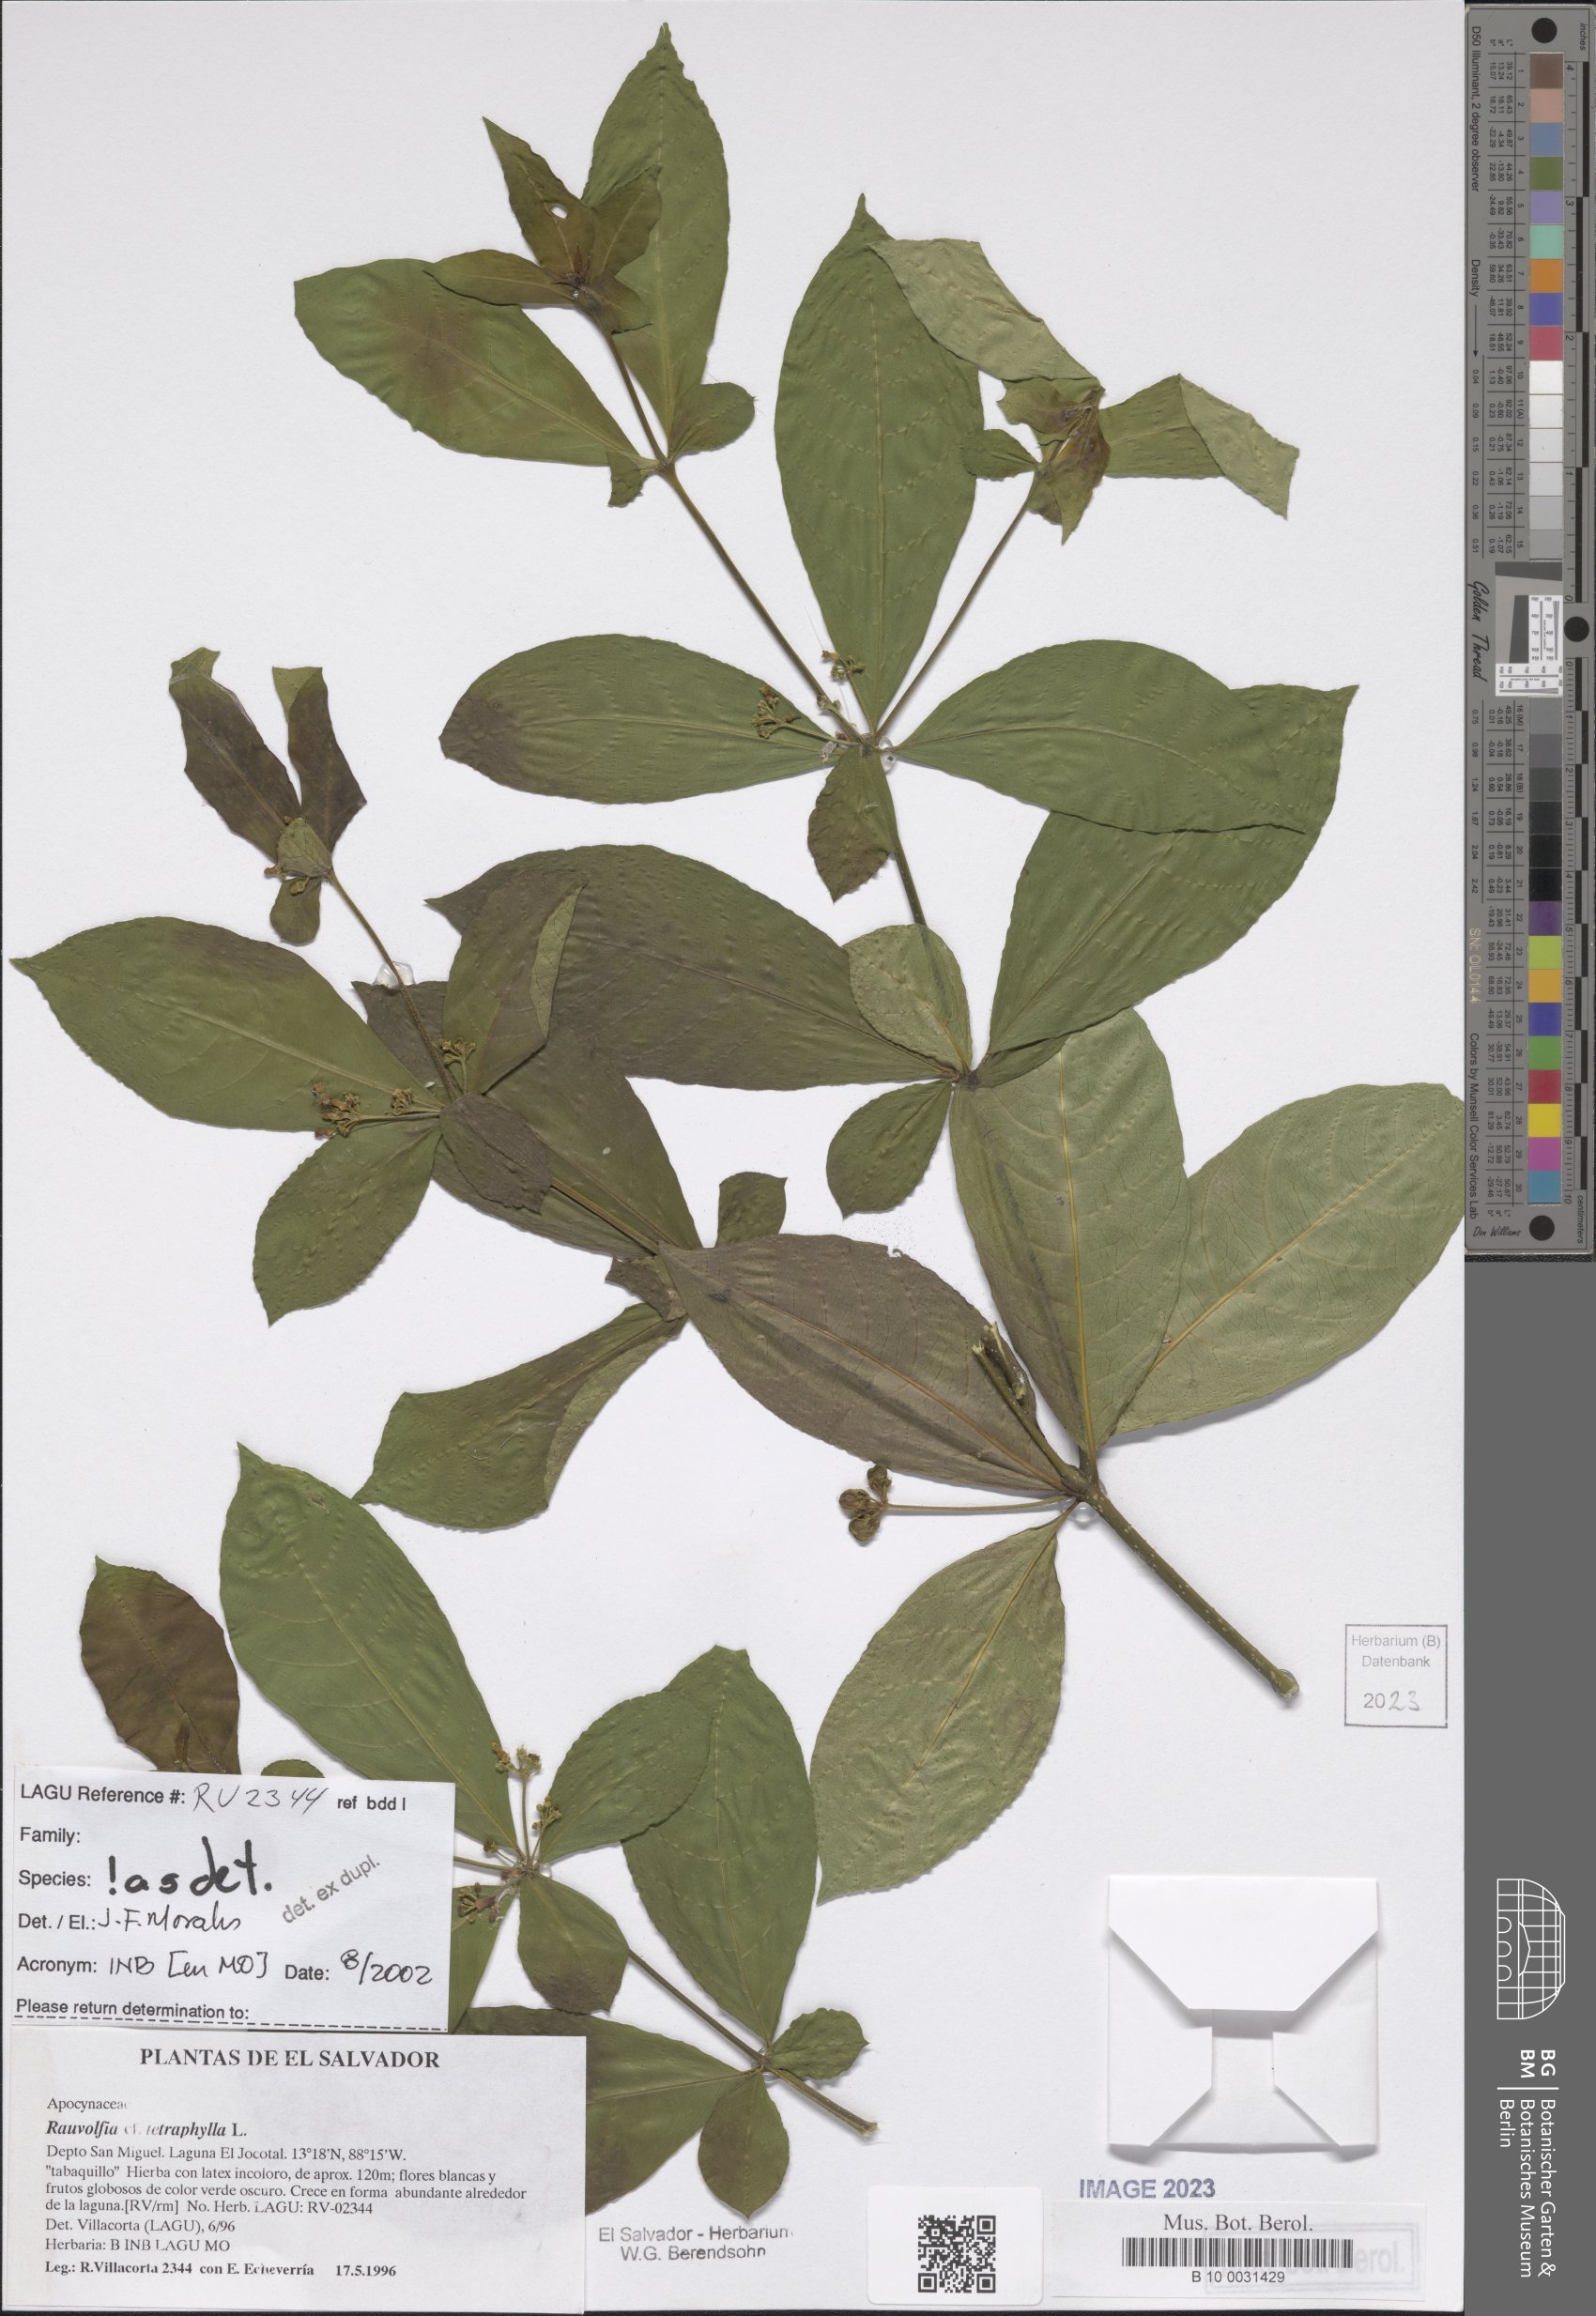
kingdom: Plantae
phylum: Tracheophyta
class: Magnoliopsida
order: Gentianales
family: Apocynaceae
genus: Rauvolfia
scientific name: Rauvolfia tetraphylla
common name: Four-leaf devil-pepper
